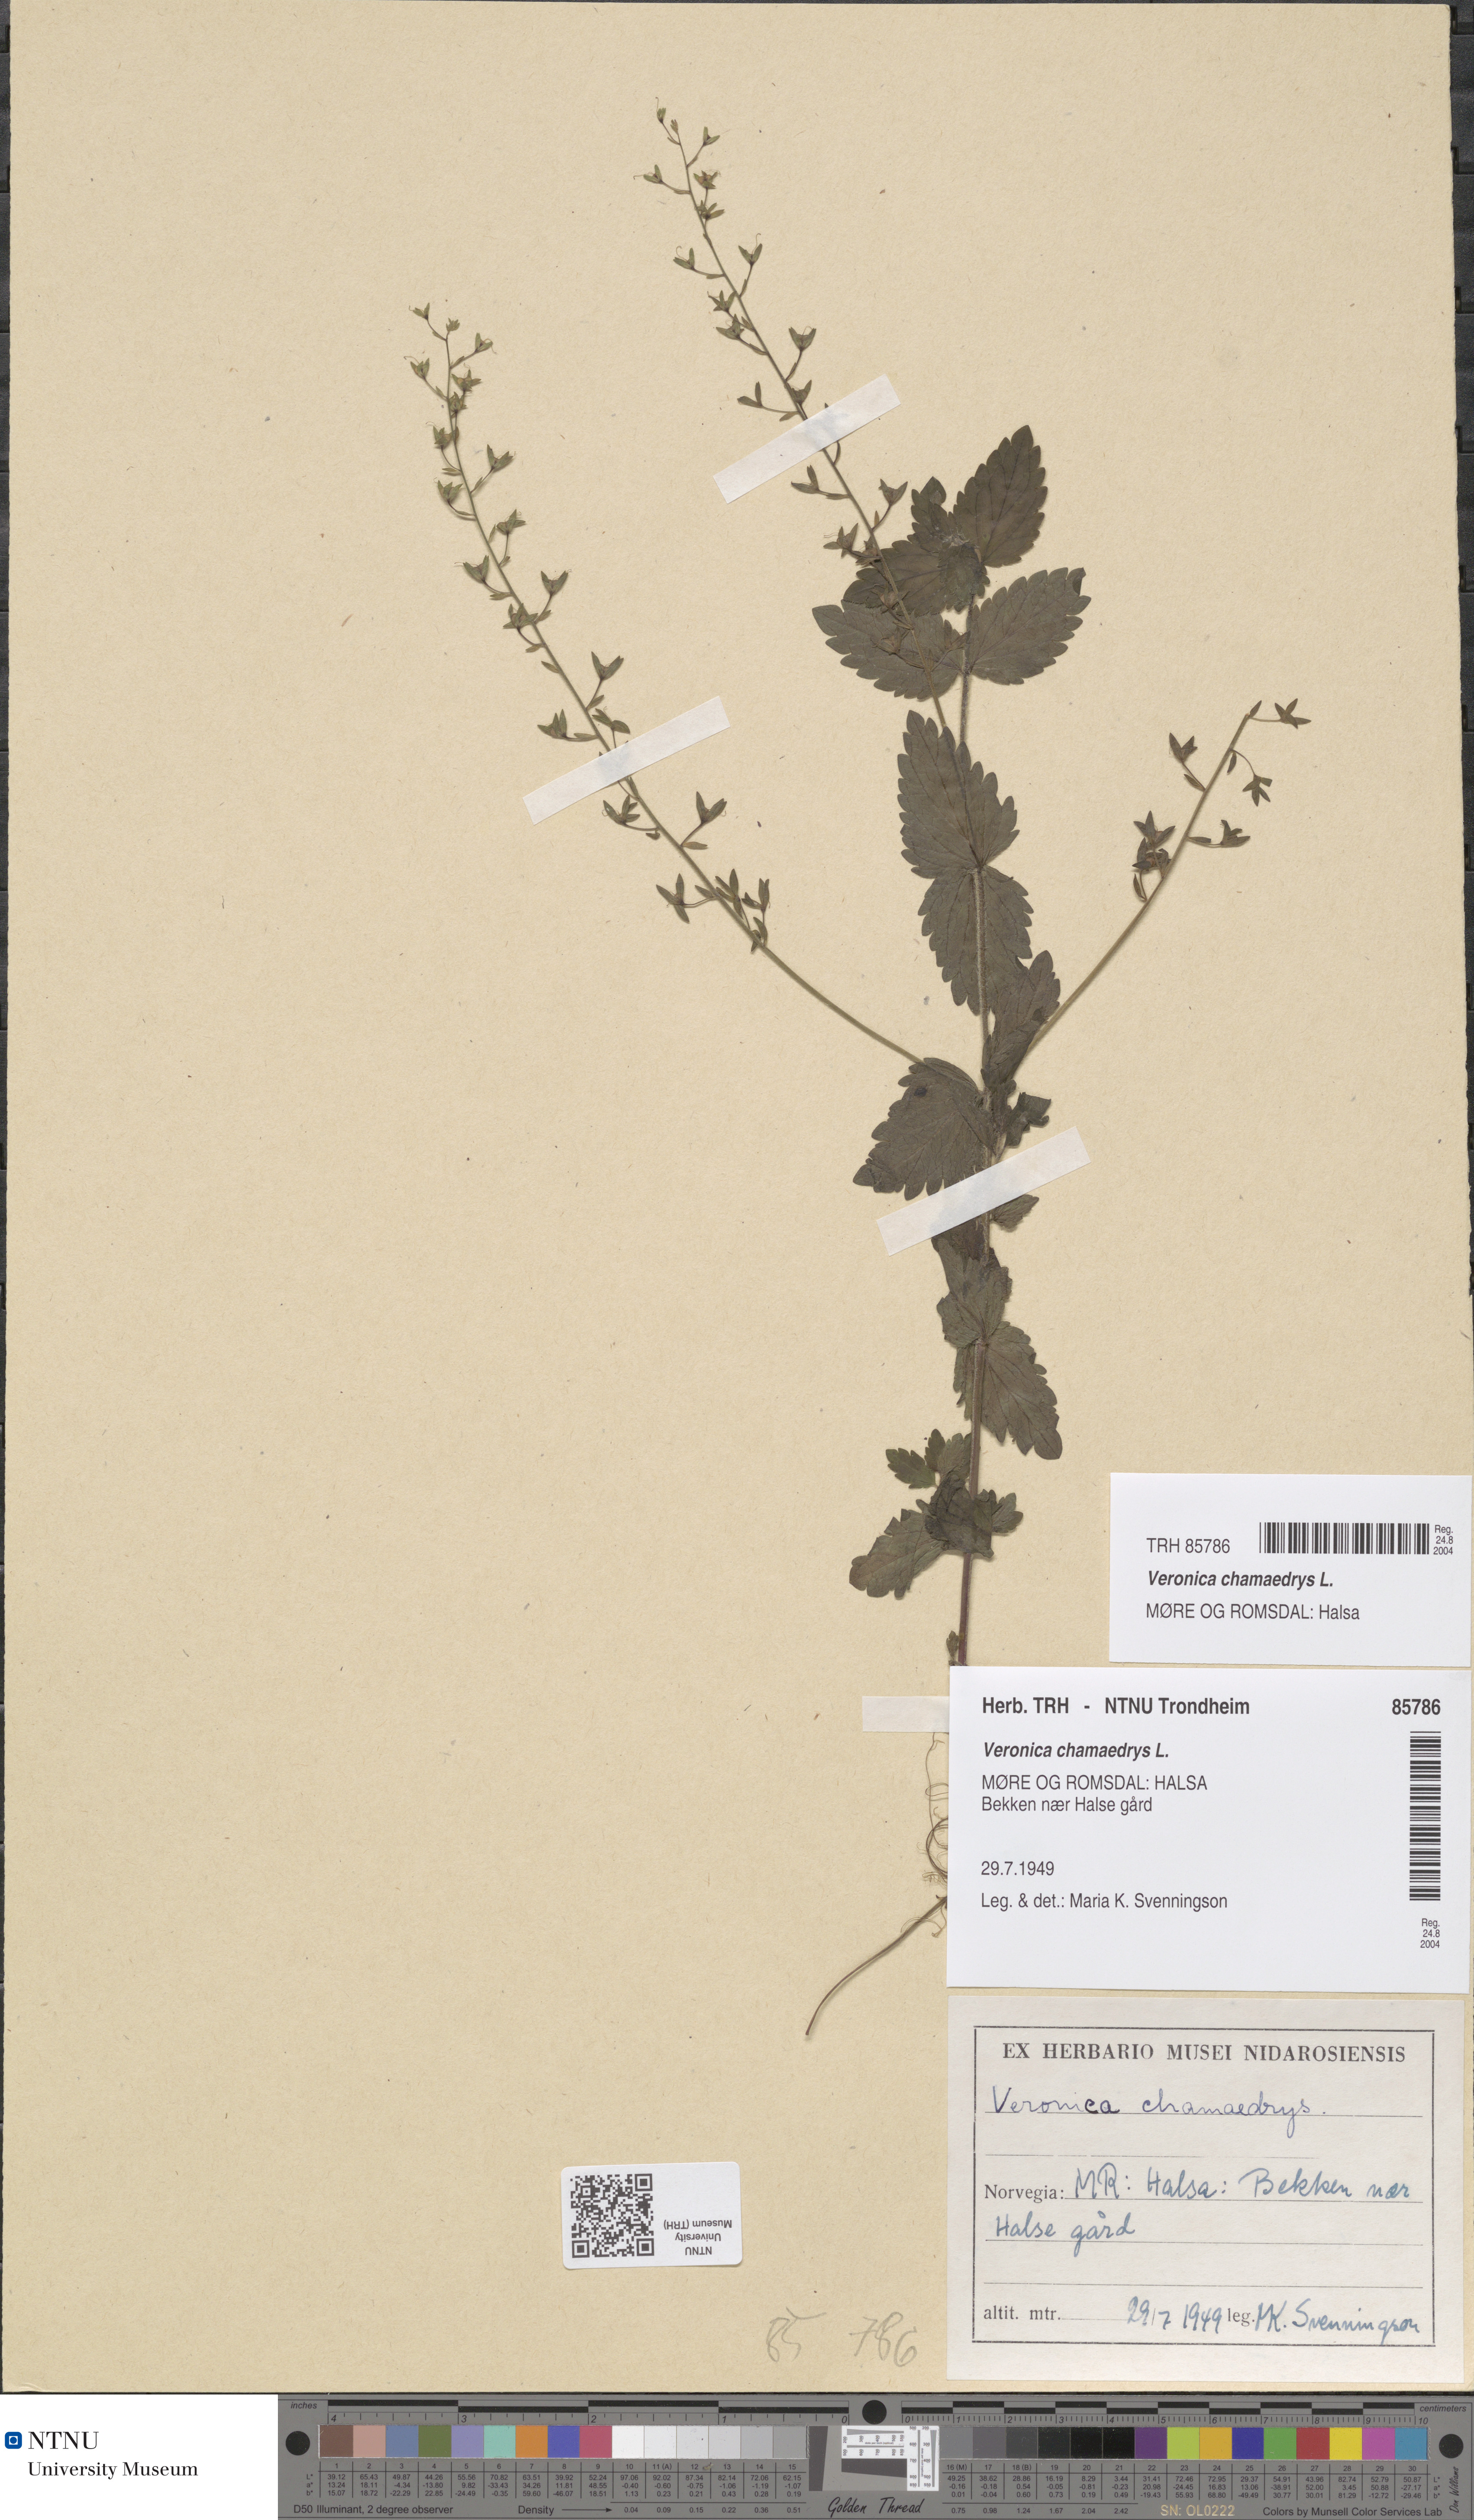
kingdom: Plantae
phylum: Tracheophyta
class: Magnoliopsida
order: Lamiales
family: Plantaginaceae
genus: Veronica
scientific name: Veronica chamaedrys
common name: Germander speedwell
